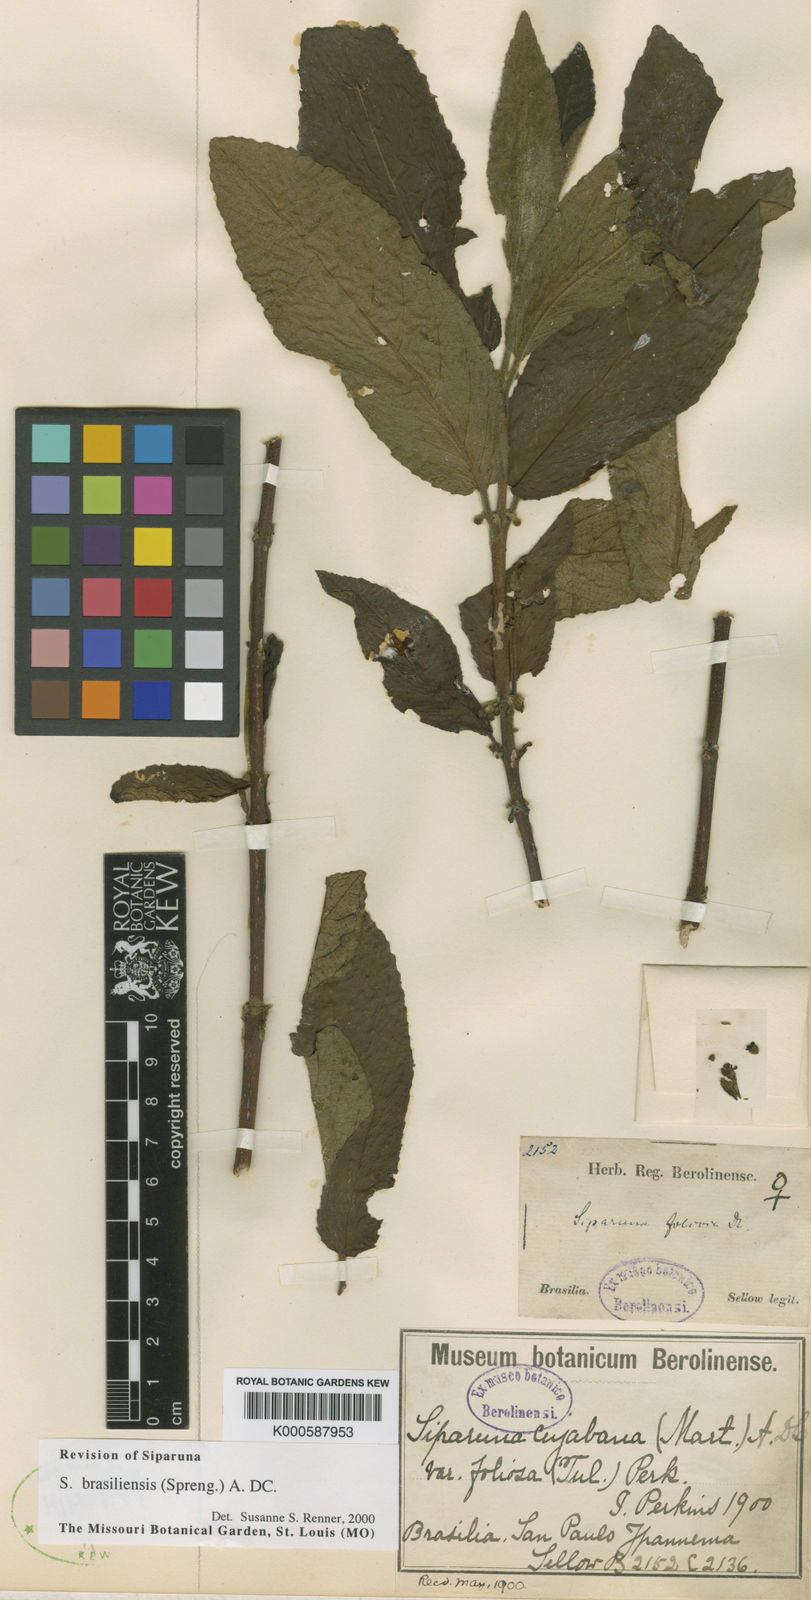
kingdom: Plantae
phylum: Tracheophyta
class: Magnoliopsida
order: Laurales
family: Siparunaceae
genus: Siparuna
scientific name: Siparuna brasiliensis
